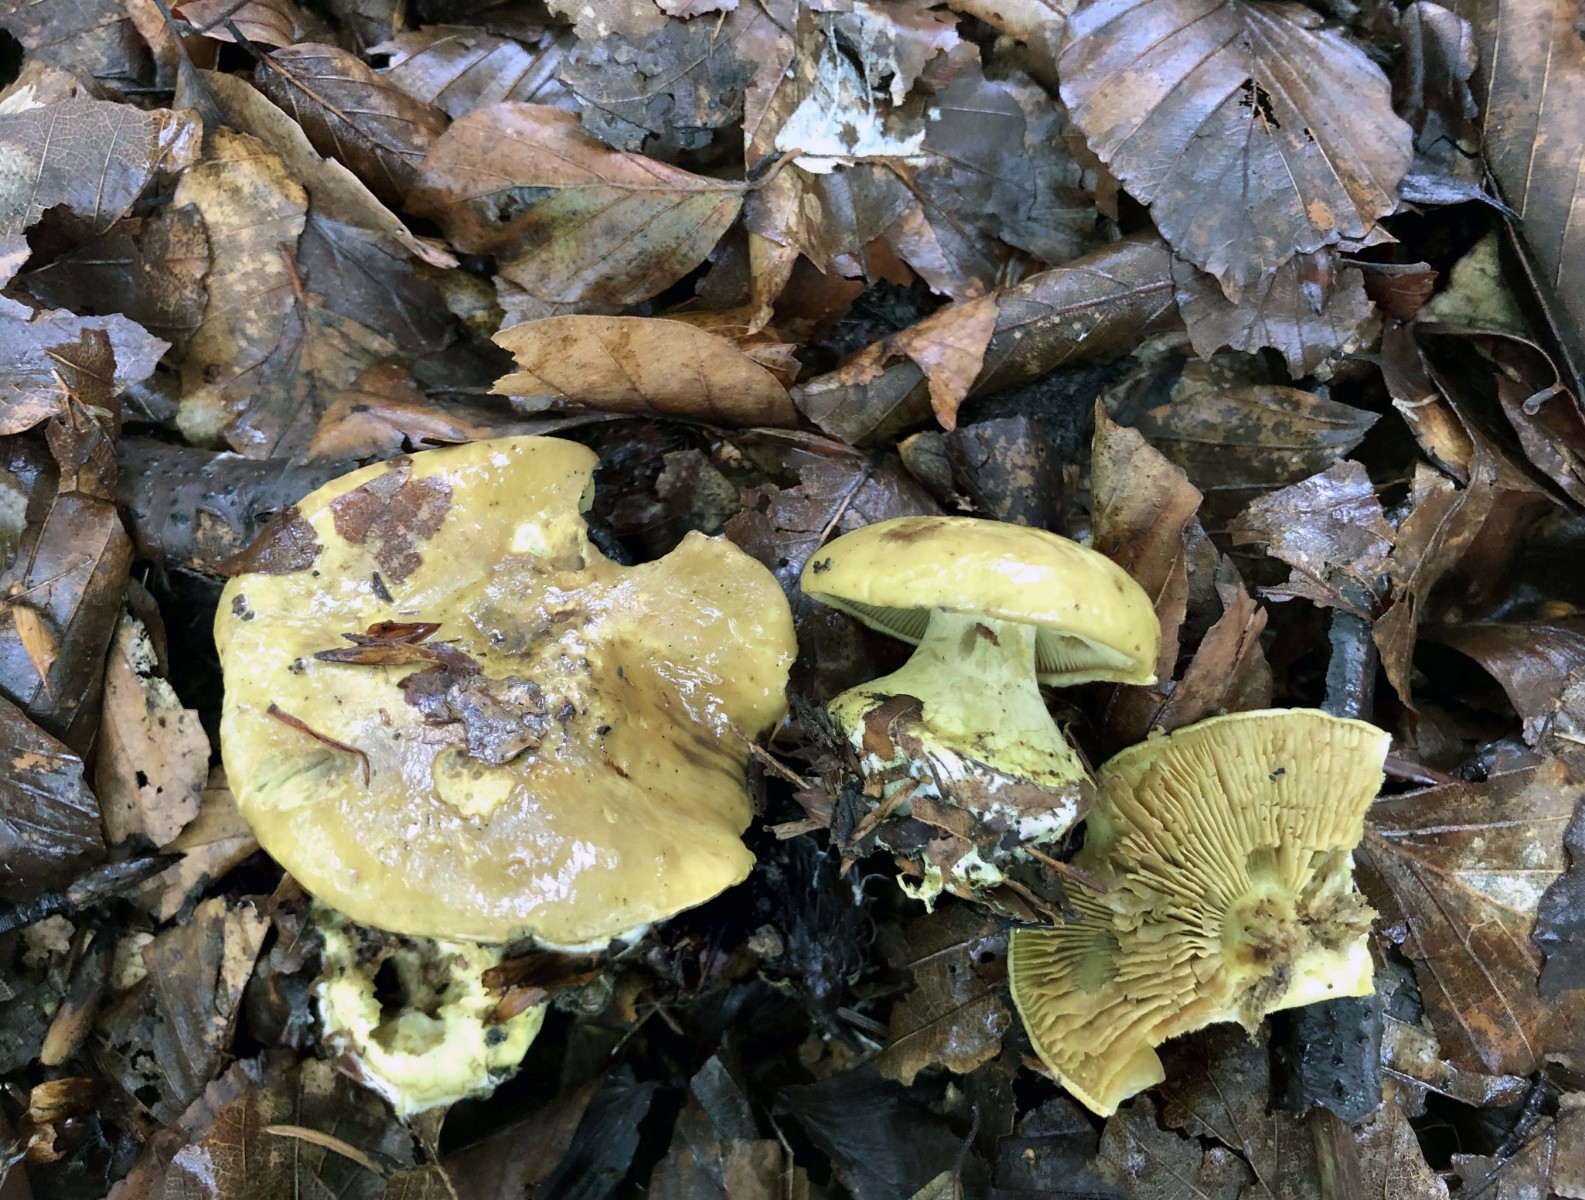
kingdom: Fungi
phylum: Basidiomycota
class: Agaricomycetes
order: Agaricales
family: Cortinariaceae
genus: Calonarius
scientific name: Calonarius citrinus
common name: citrongul slørhat
